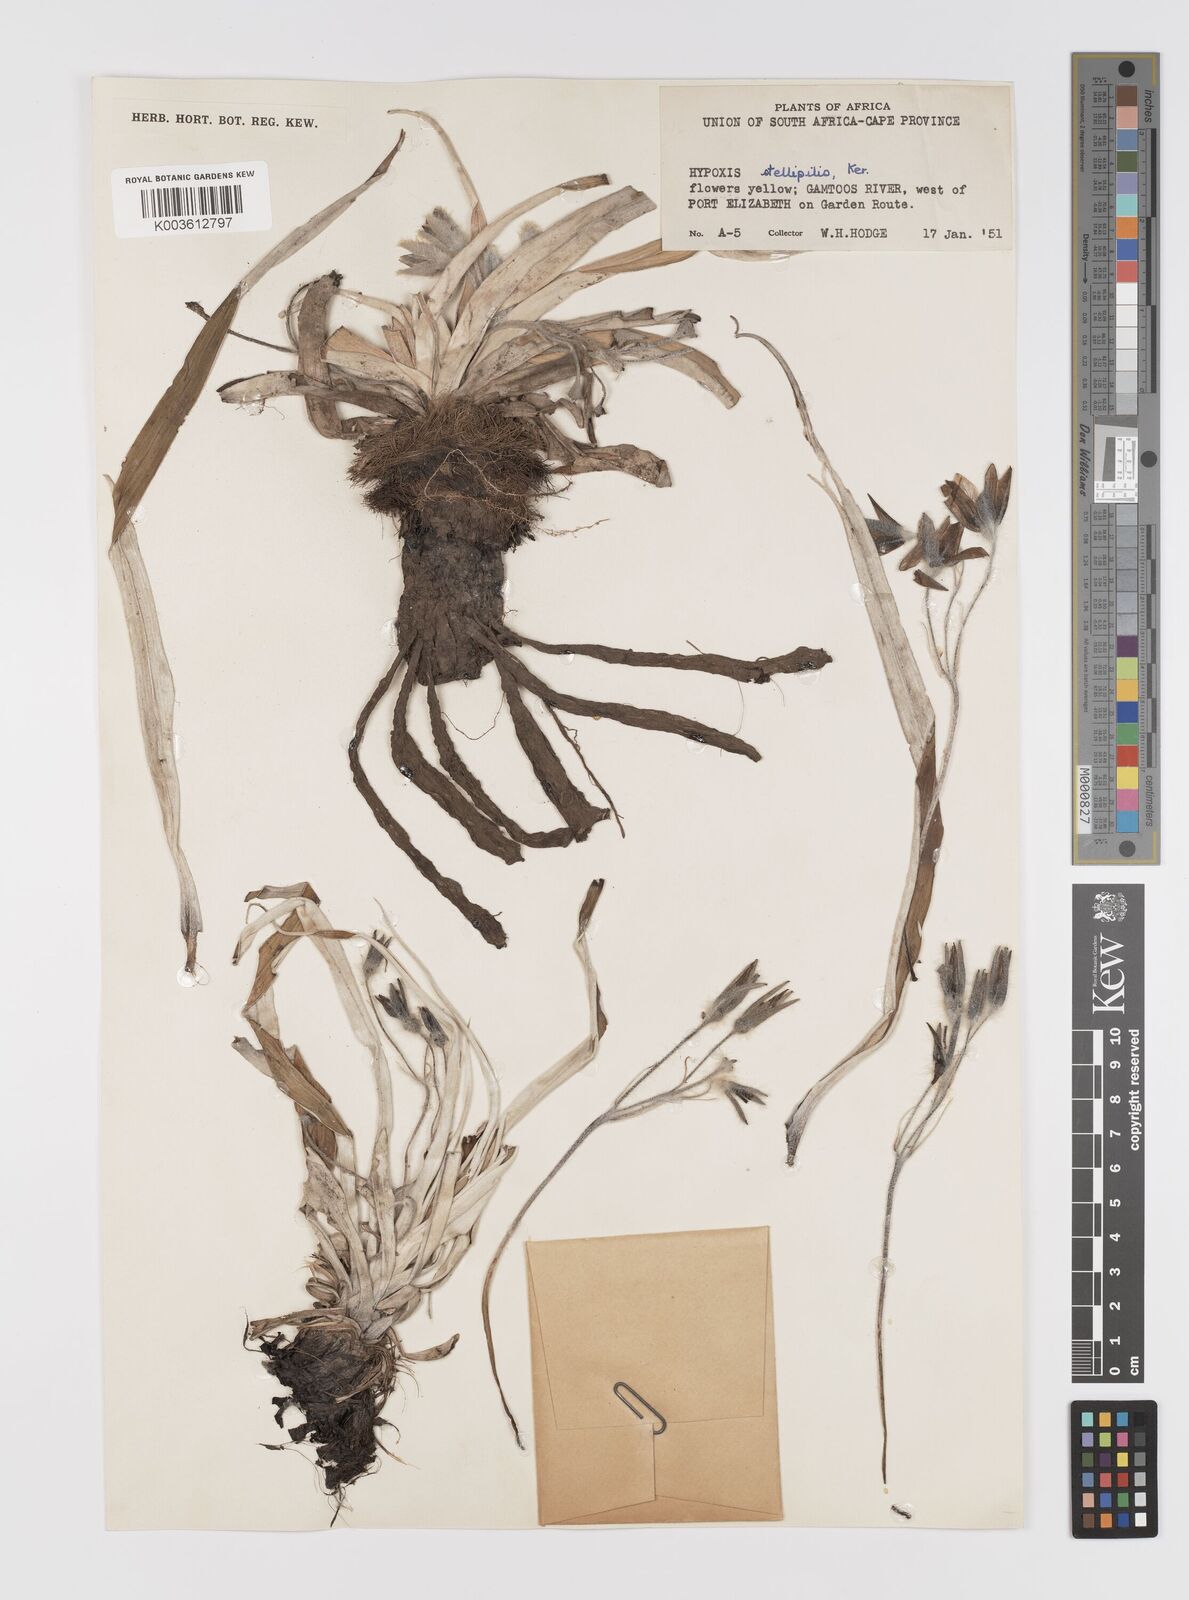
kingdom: Plantae
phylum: Tracheophyta
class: Liliopsida
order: Asparagales
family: Hypoxidaceae
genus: Hypoxis
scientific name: Hypoxis stellipilis
